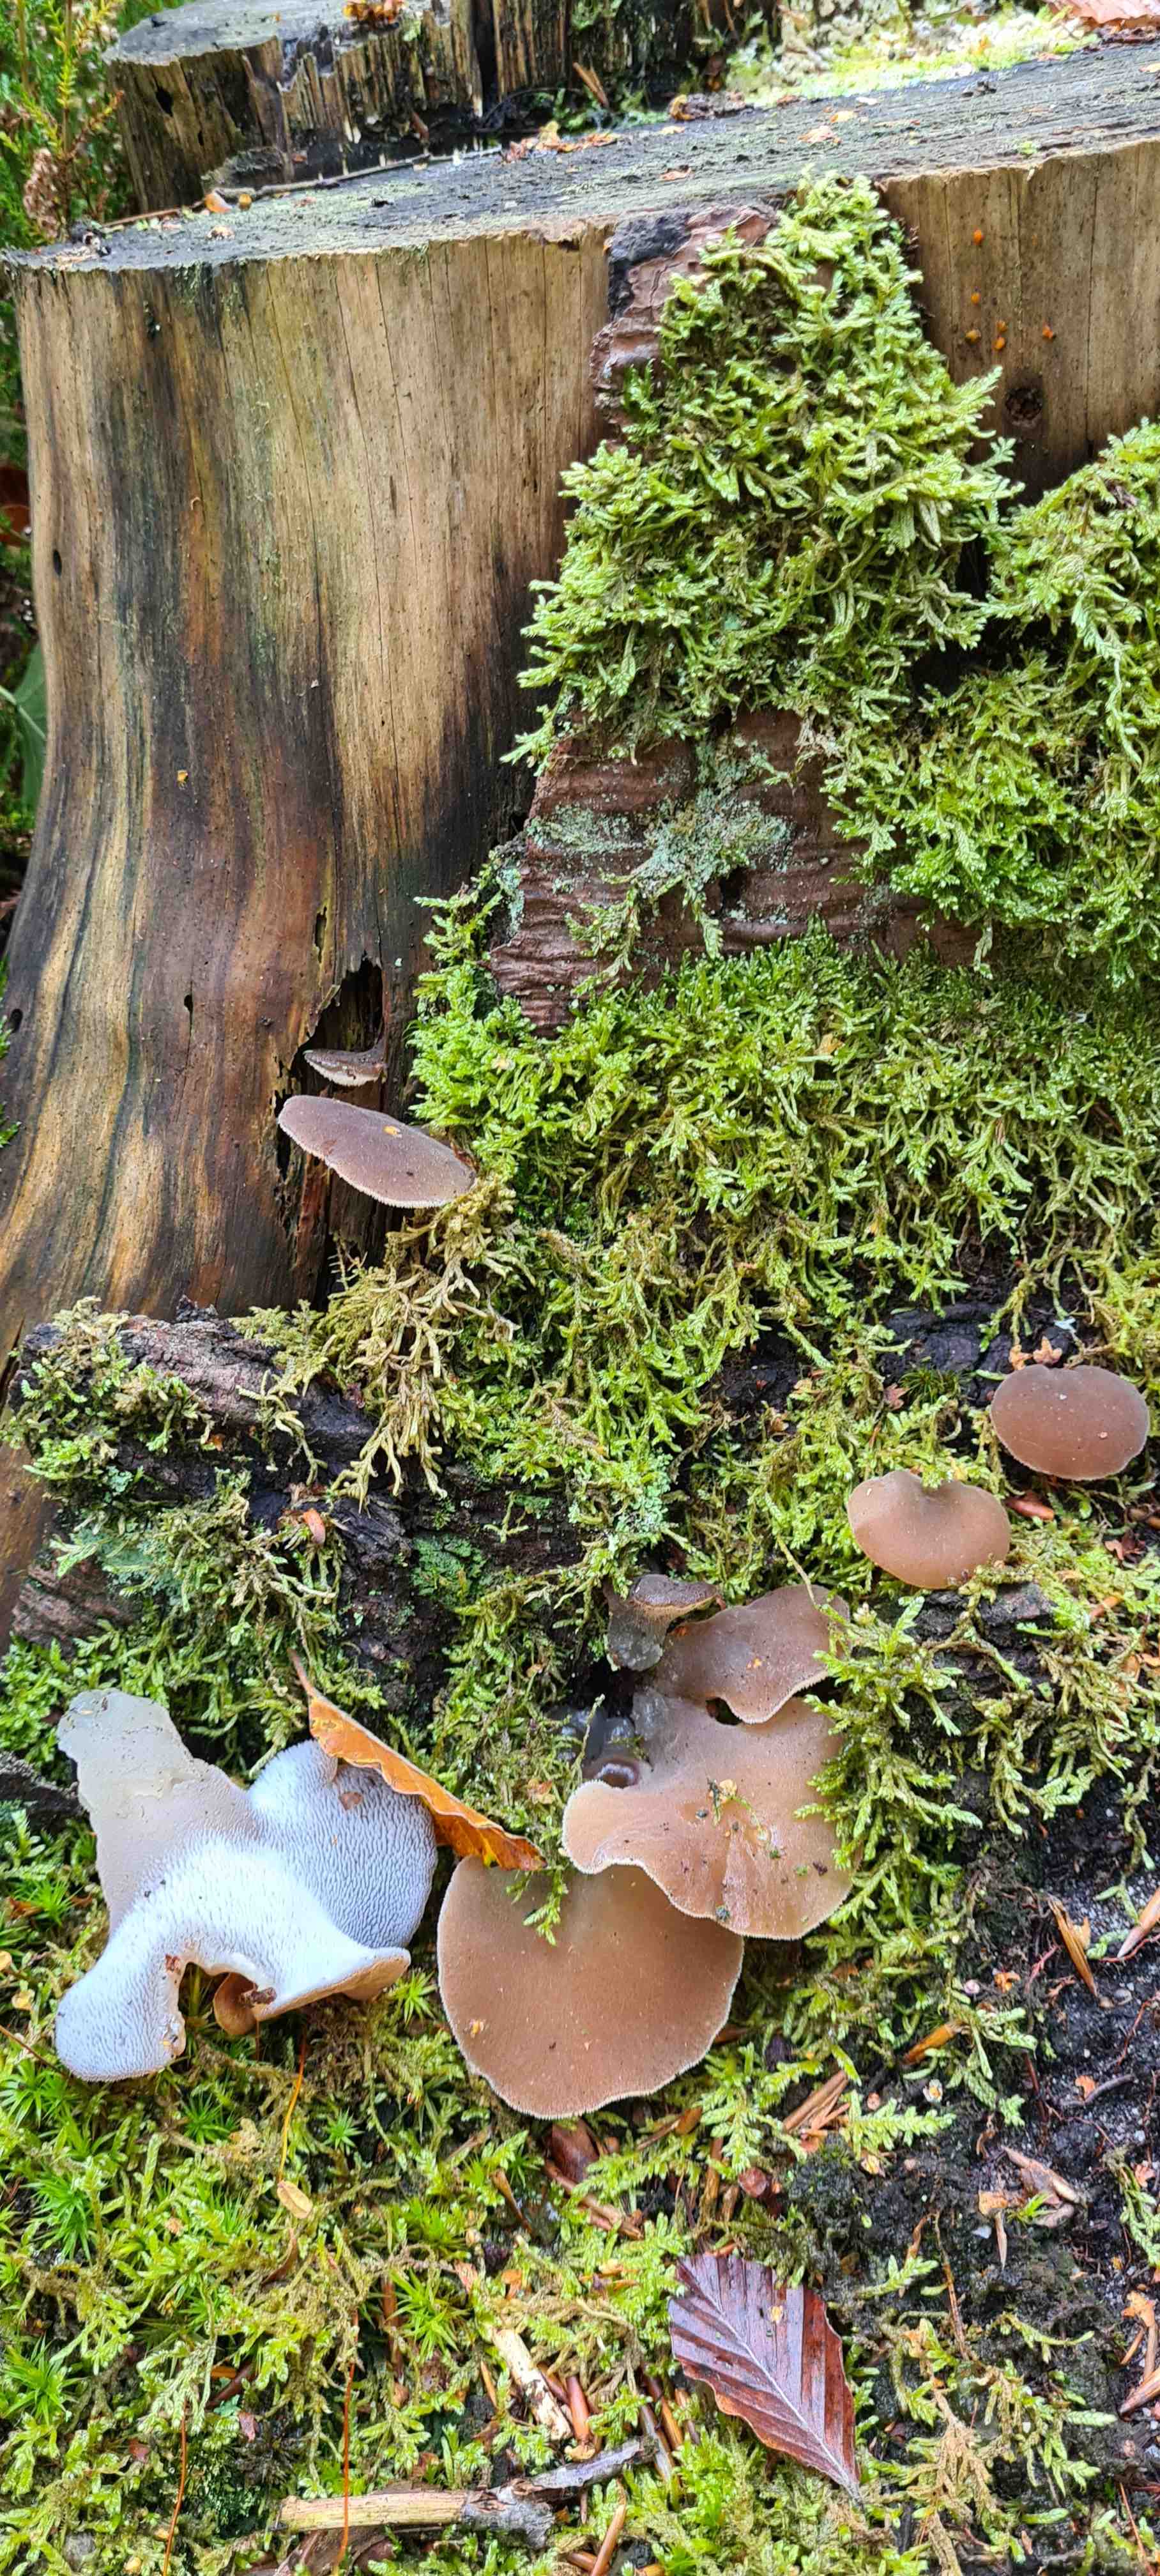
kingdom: Fungi
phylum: Basidiomycota
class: Agaricomycetes
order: Auriculariales
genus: Pseudohydnum
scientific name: Pseudohydnum gelatinosum
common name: bævretand
